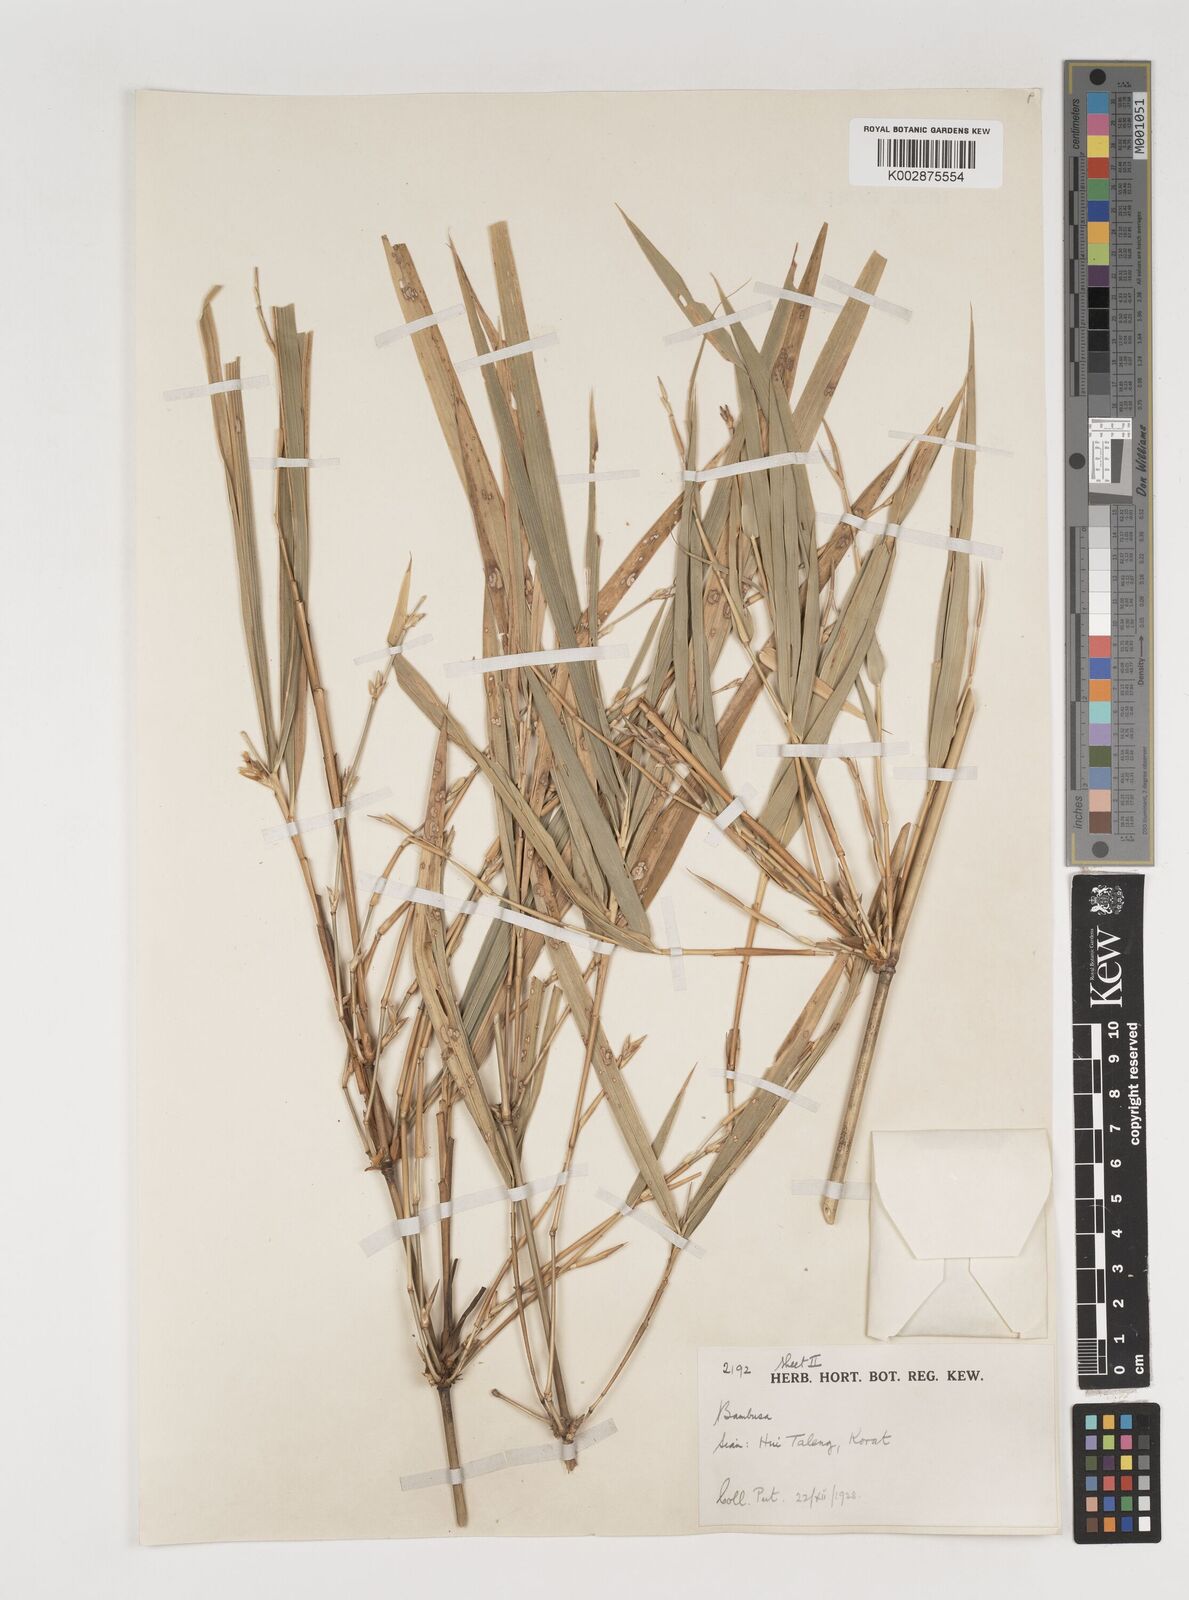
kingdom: Plantae
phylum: Tracheophyta
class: Liliopsida
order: Poales
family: Poaceae
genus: Vietnamosasa
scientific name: Vietnamosasa pusilla
